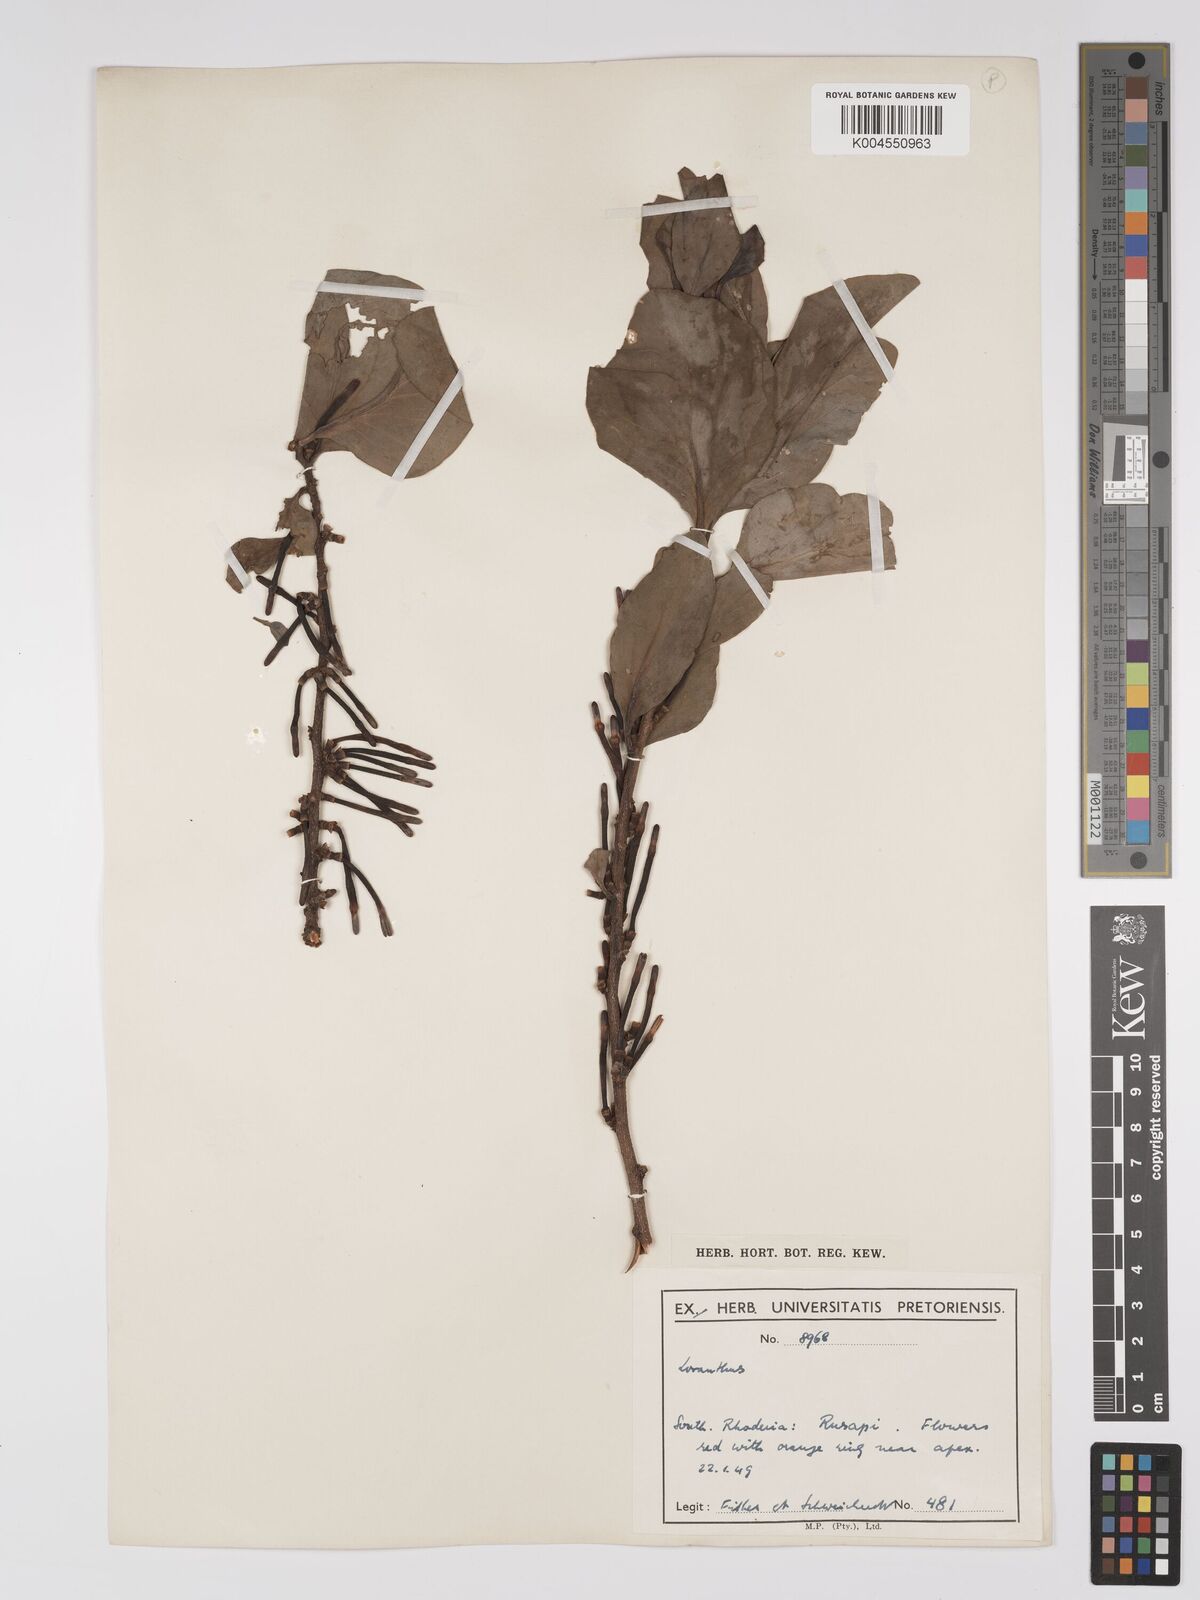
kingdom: Plantae
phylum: Tracheophyta
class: Magnoliopsida
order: Santalales
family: Loranthaceae
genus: Agelanthus
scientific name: Agelanthus fuellebornii
